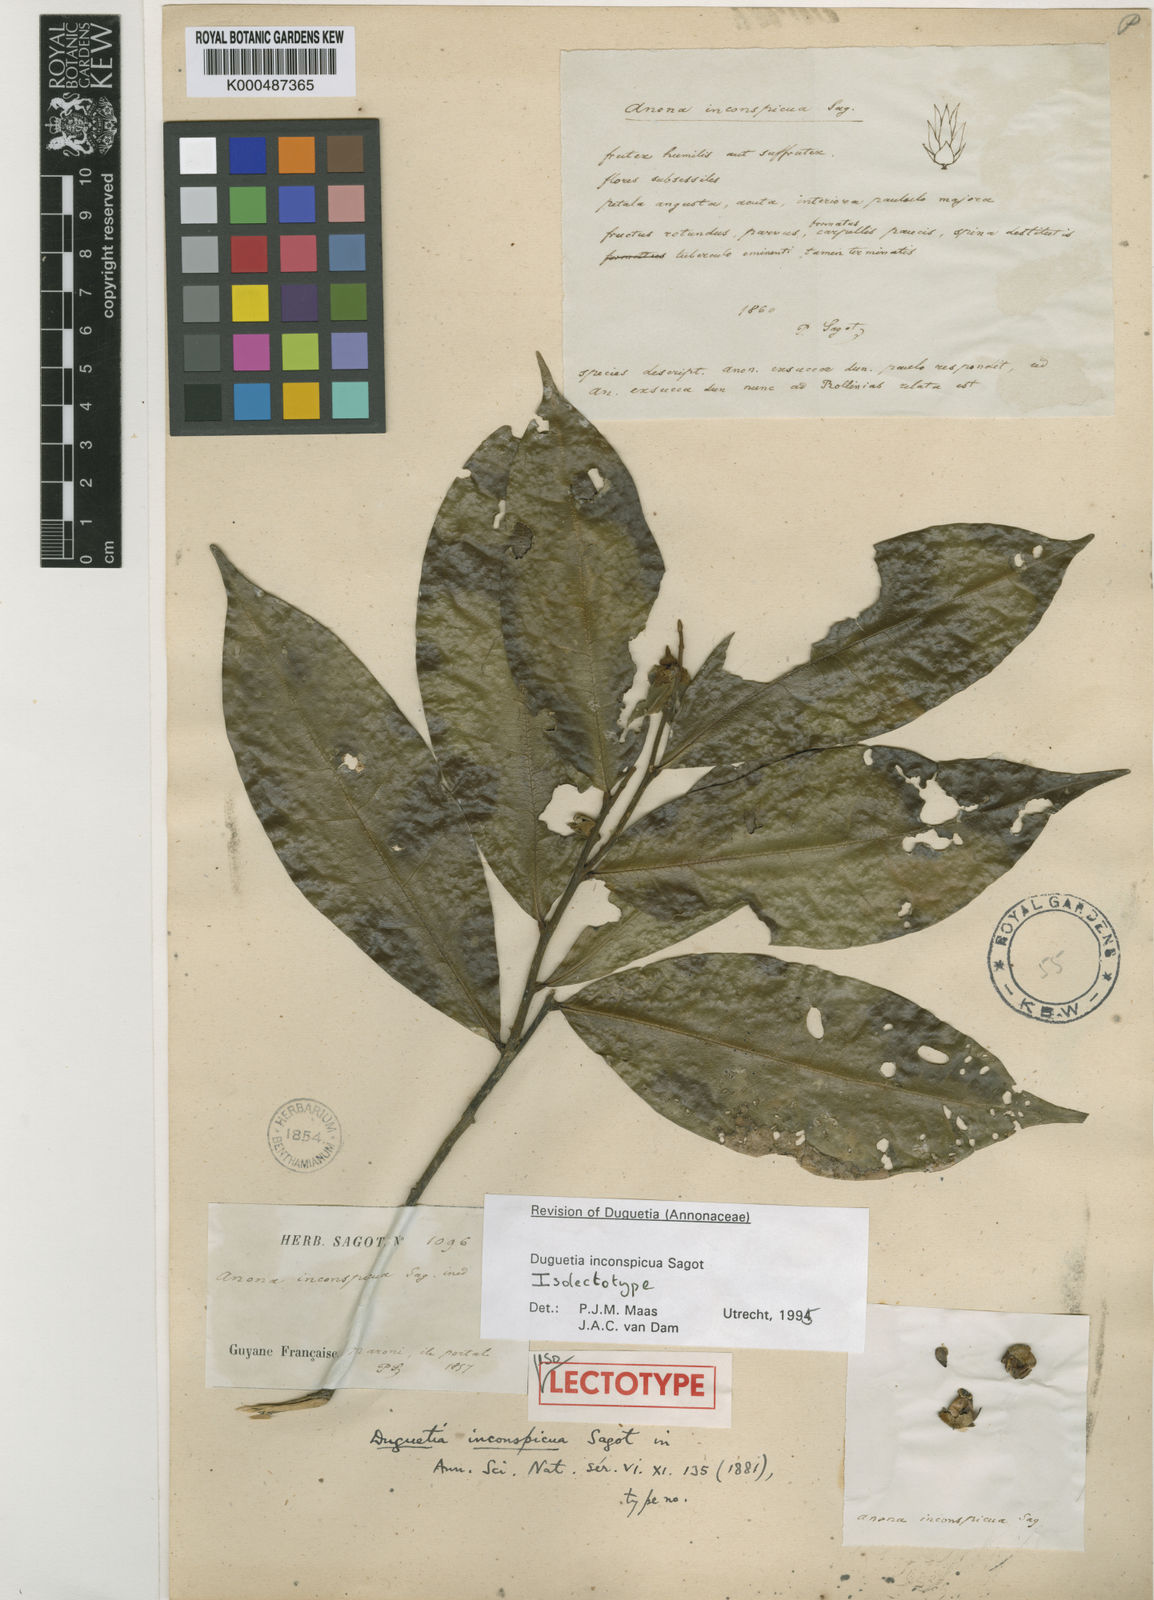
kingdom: Plantae
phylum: Tracheophyta
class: Magnoliopsida
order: Magnoliales
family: Annonaceae
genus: Duguetia
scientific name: Duguetia inconspicua
